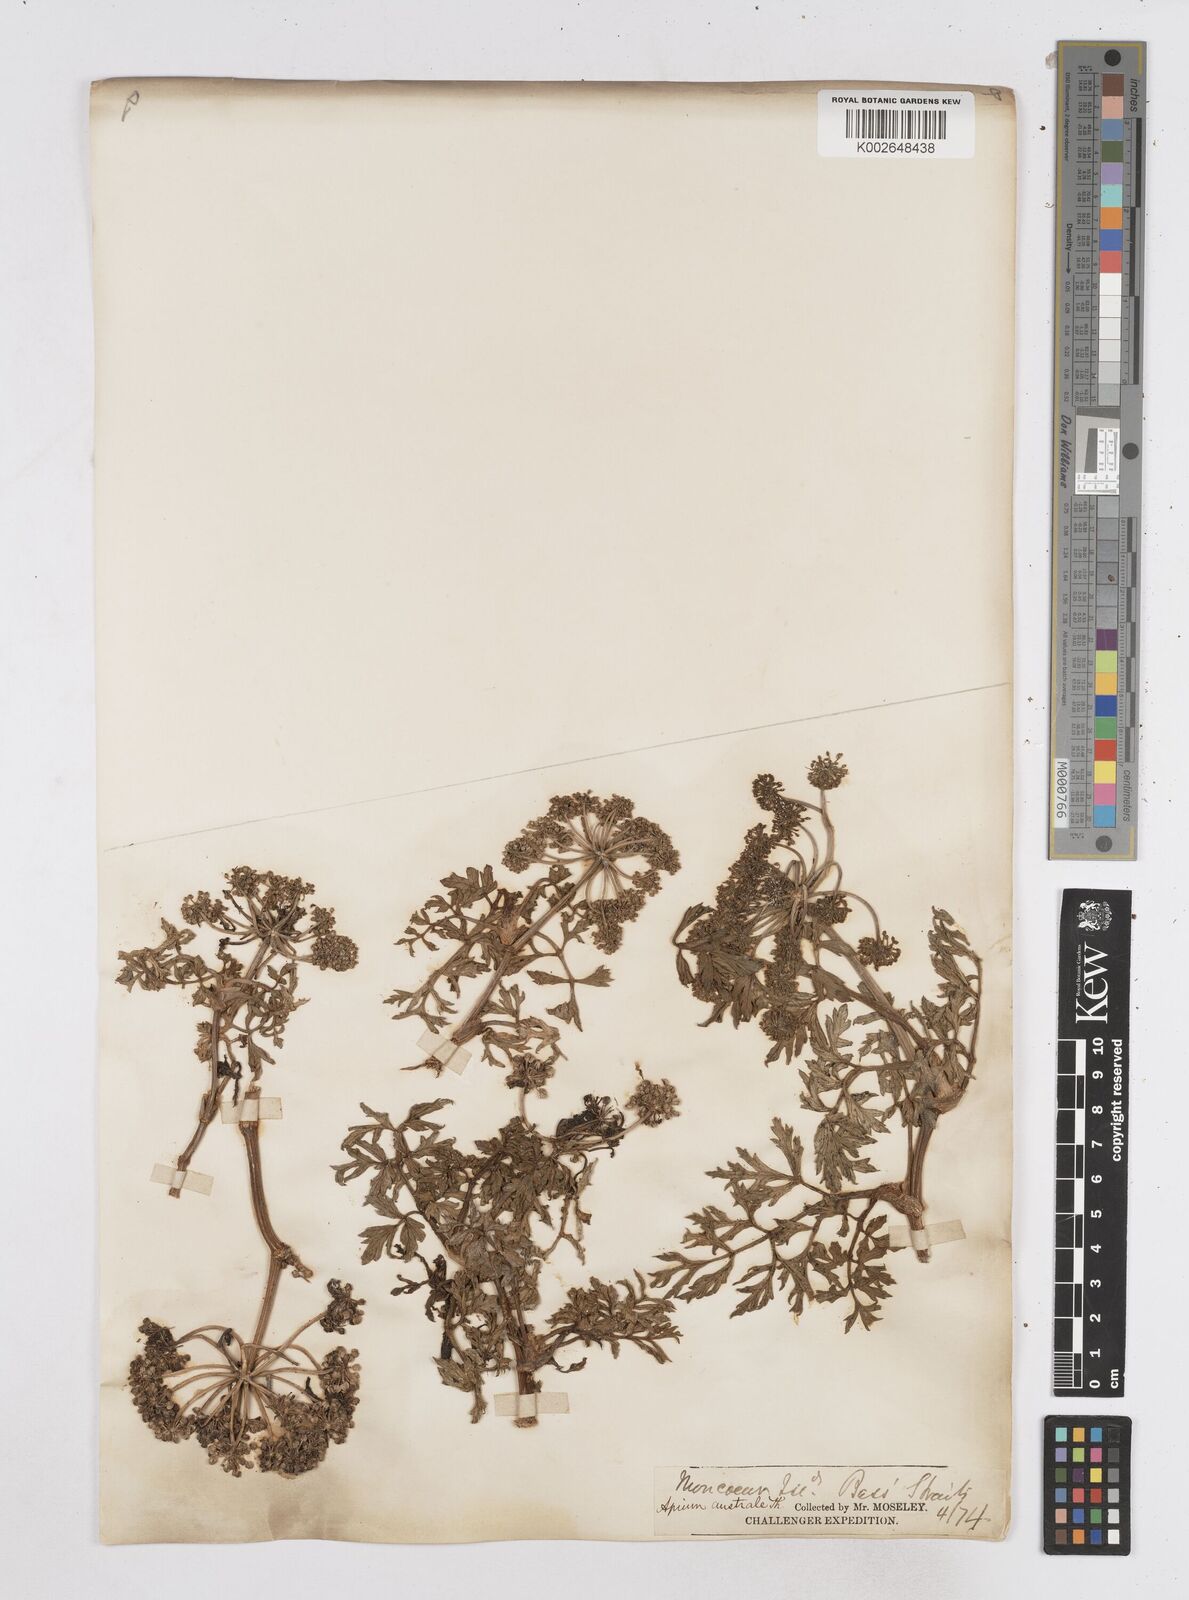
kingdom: Plantae
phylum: Tracheophyta
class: Magnoliopsida
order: Apiales
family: Apiaceae
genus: Apium
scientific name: Apium insulare
